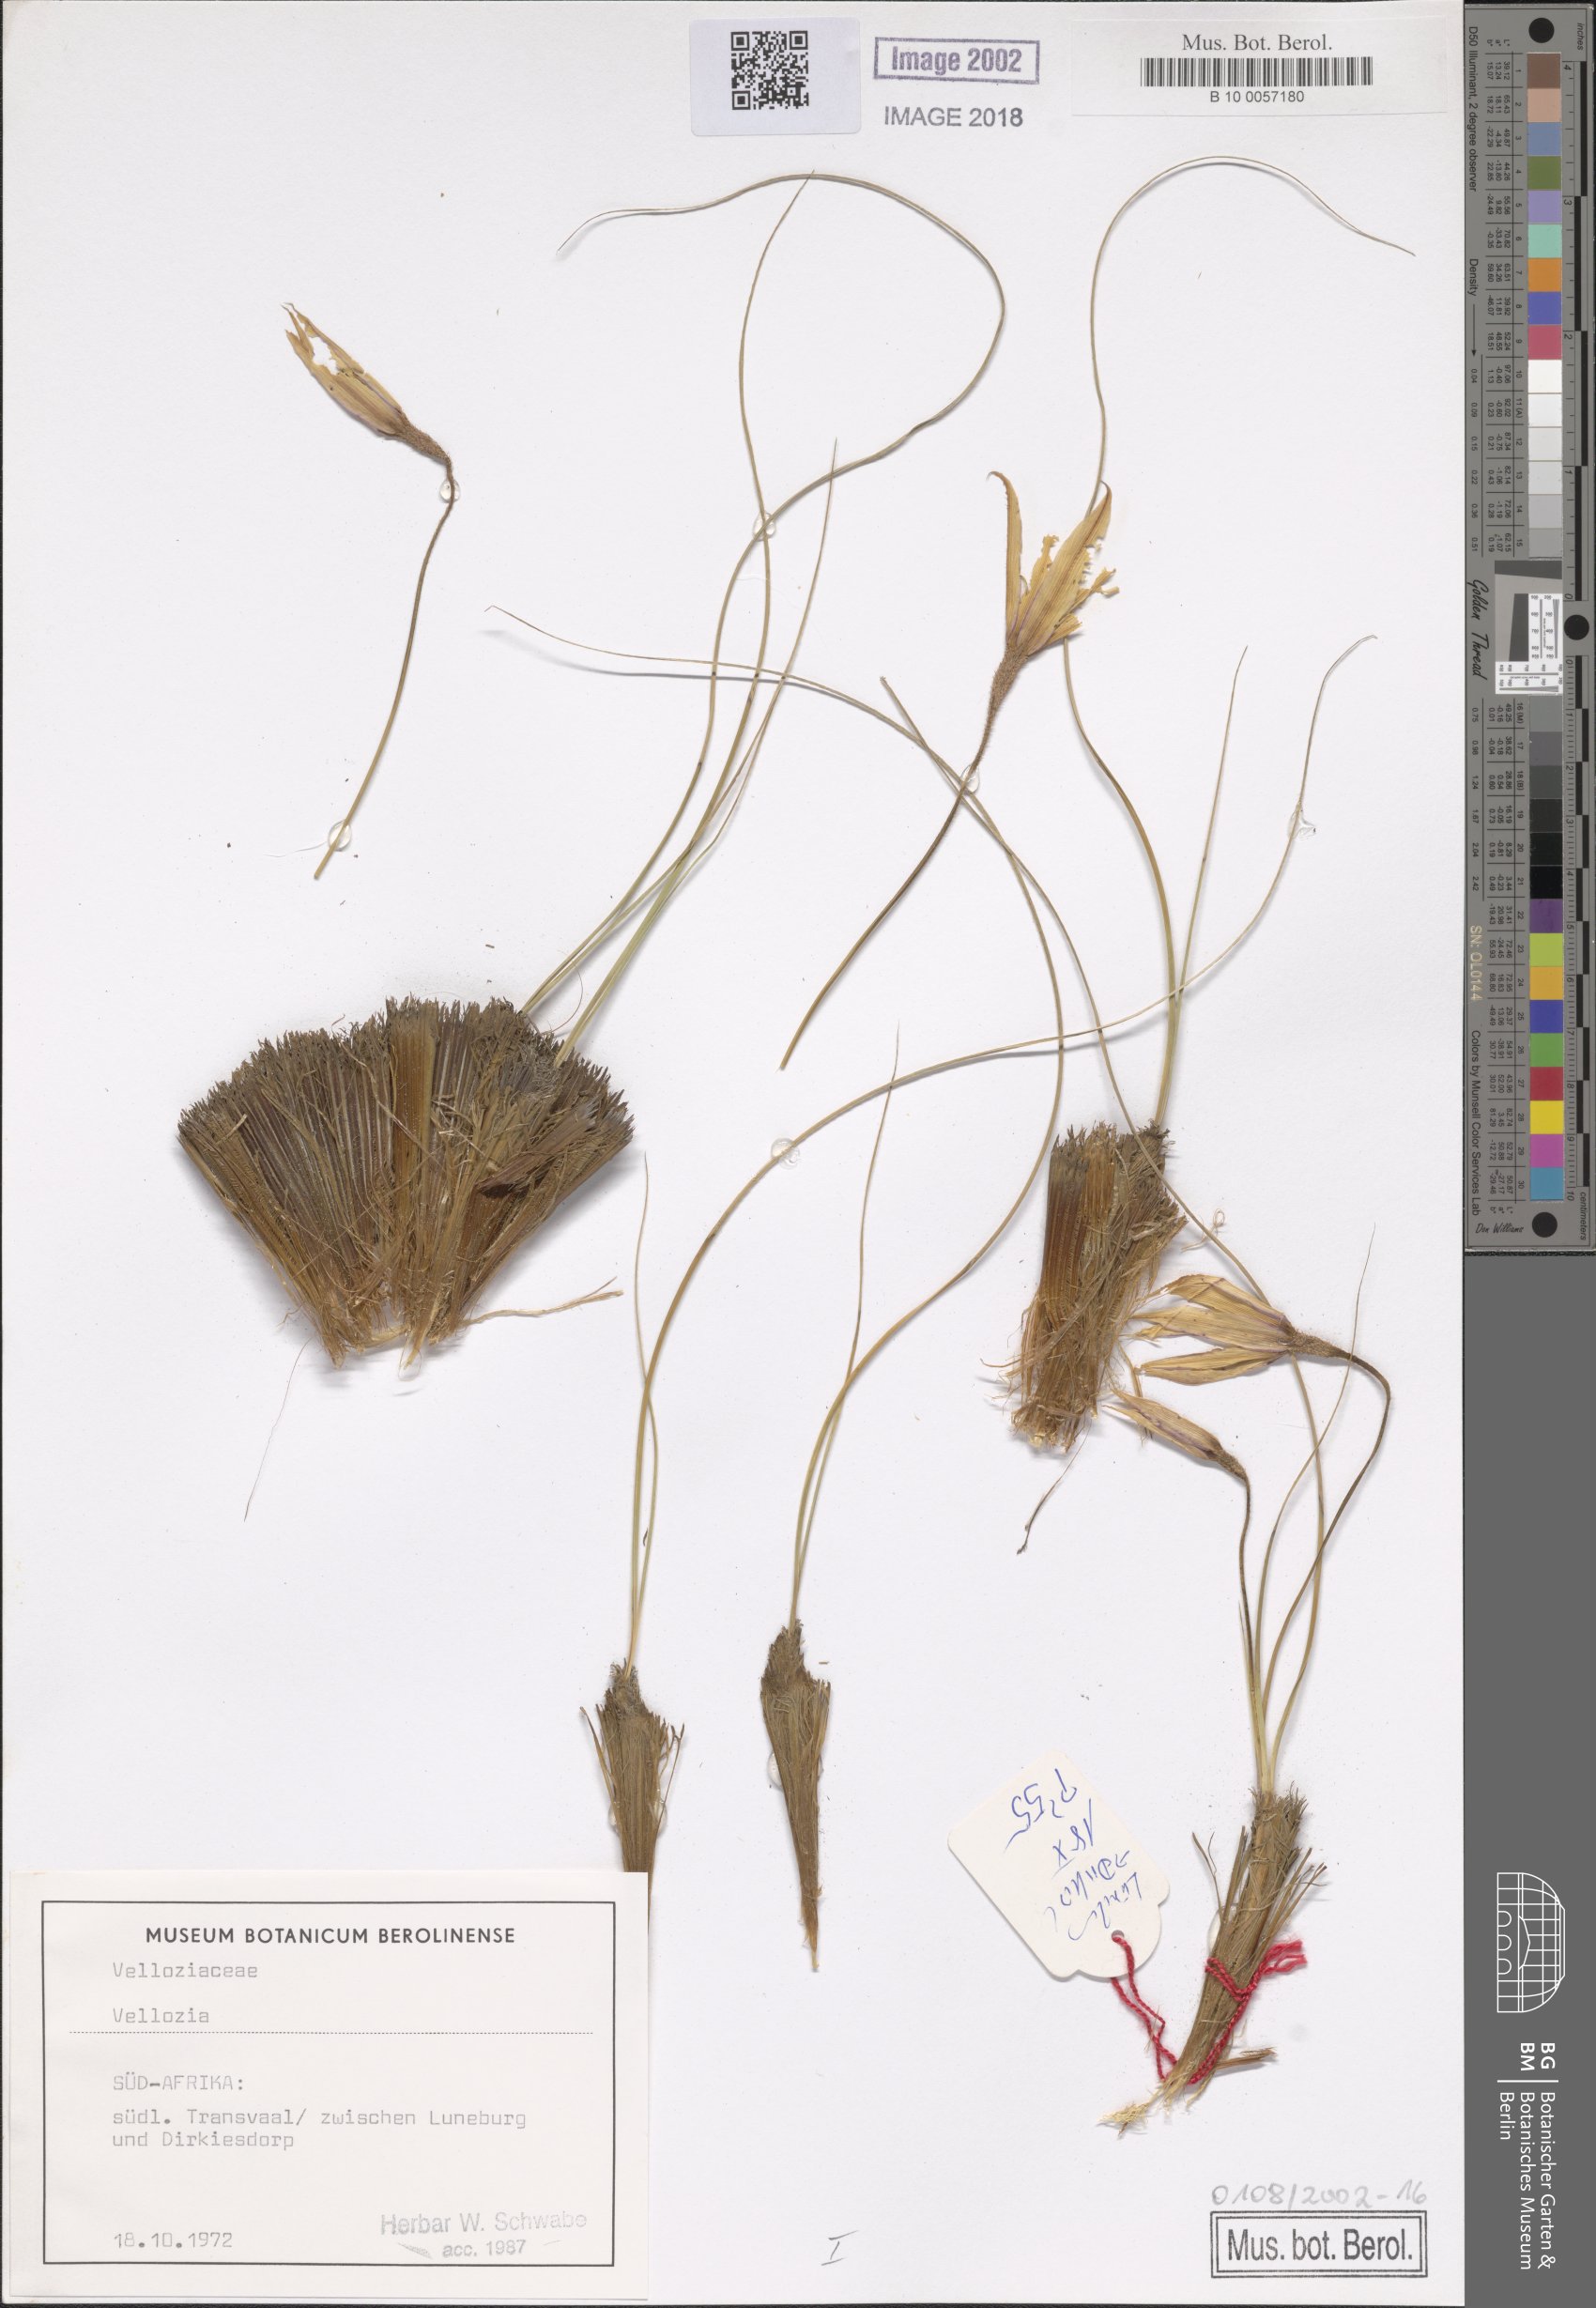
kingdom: Plantae
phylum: Tracheophyta
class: Liliopsida
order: Pandanales
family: Velloziaceae
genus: Vellozia
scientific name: Vellozia
